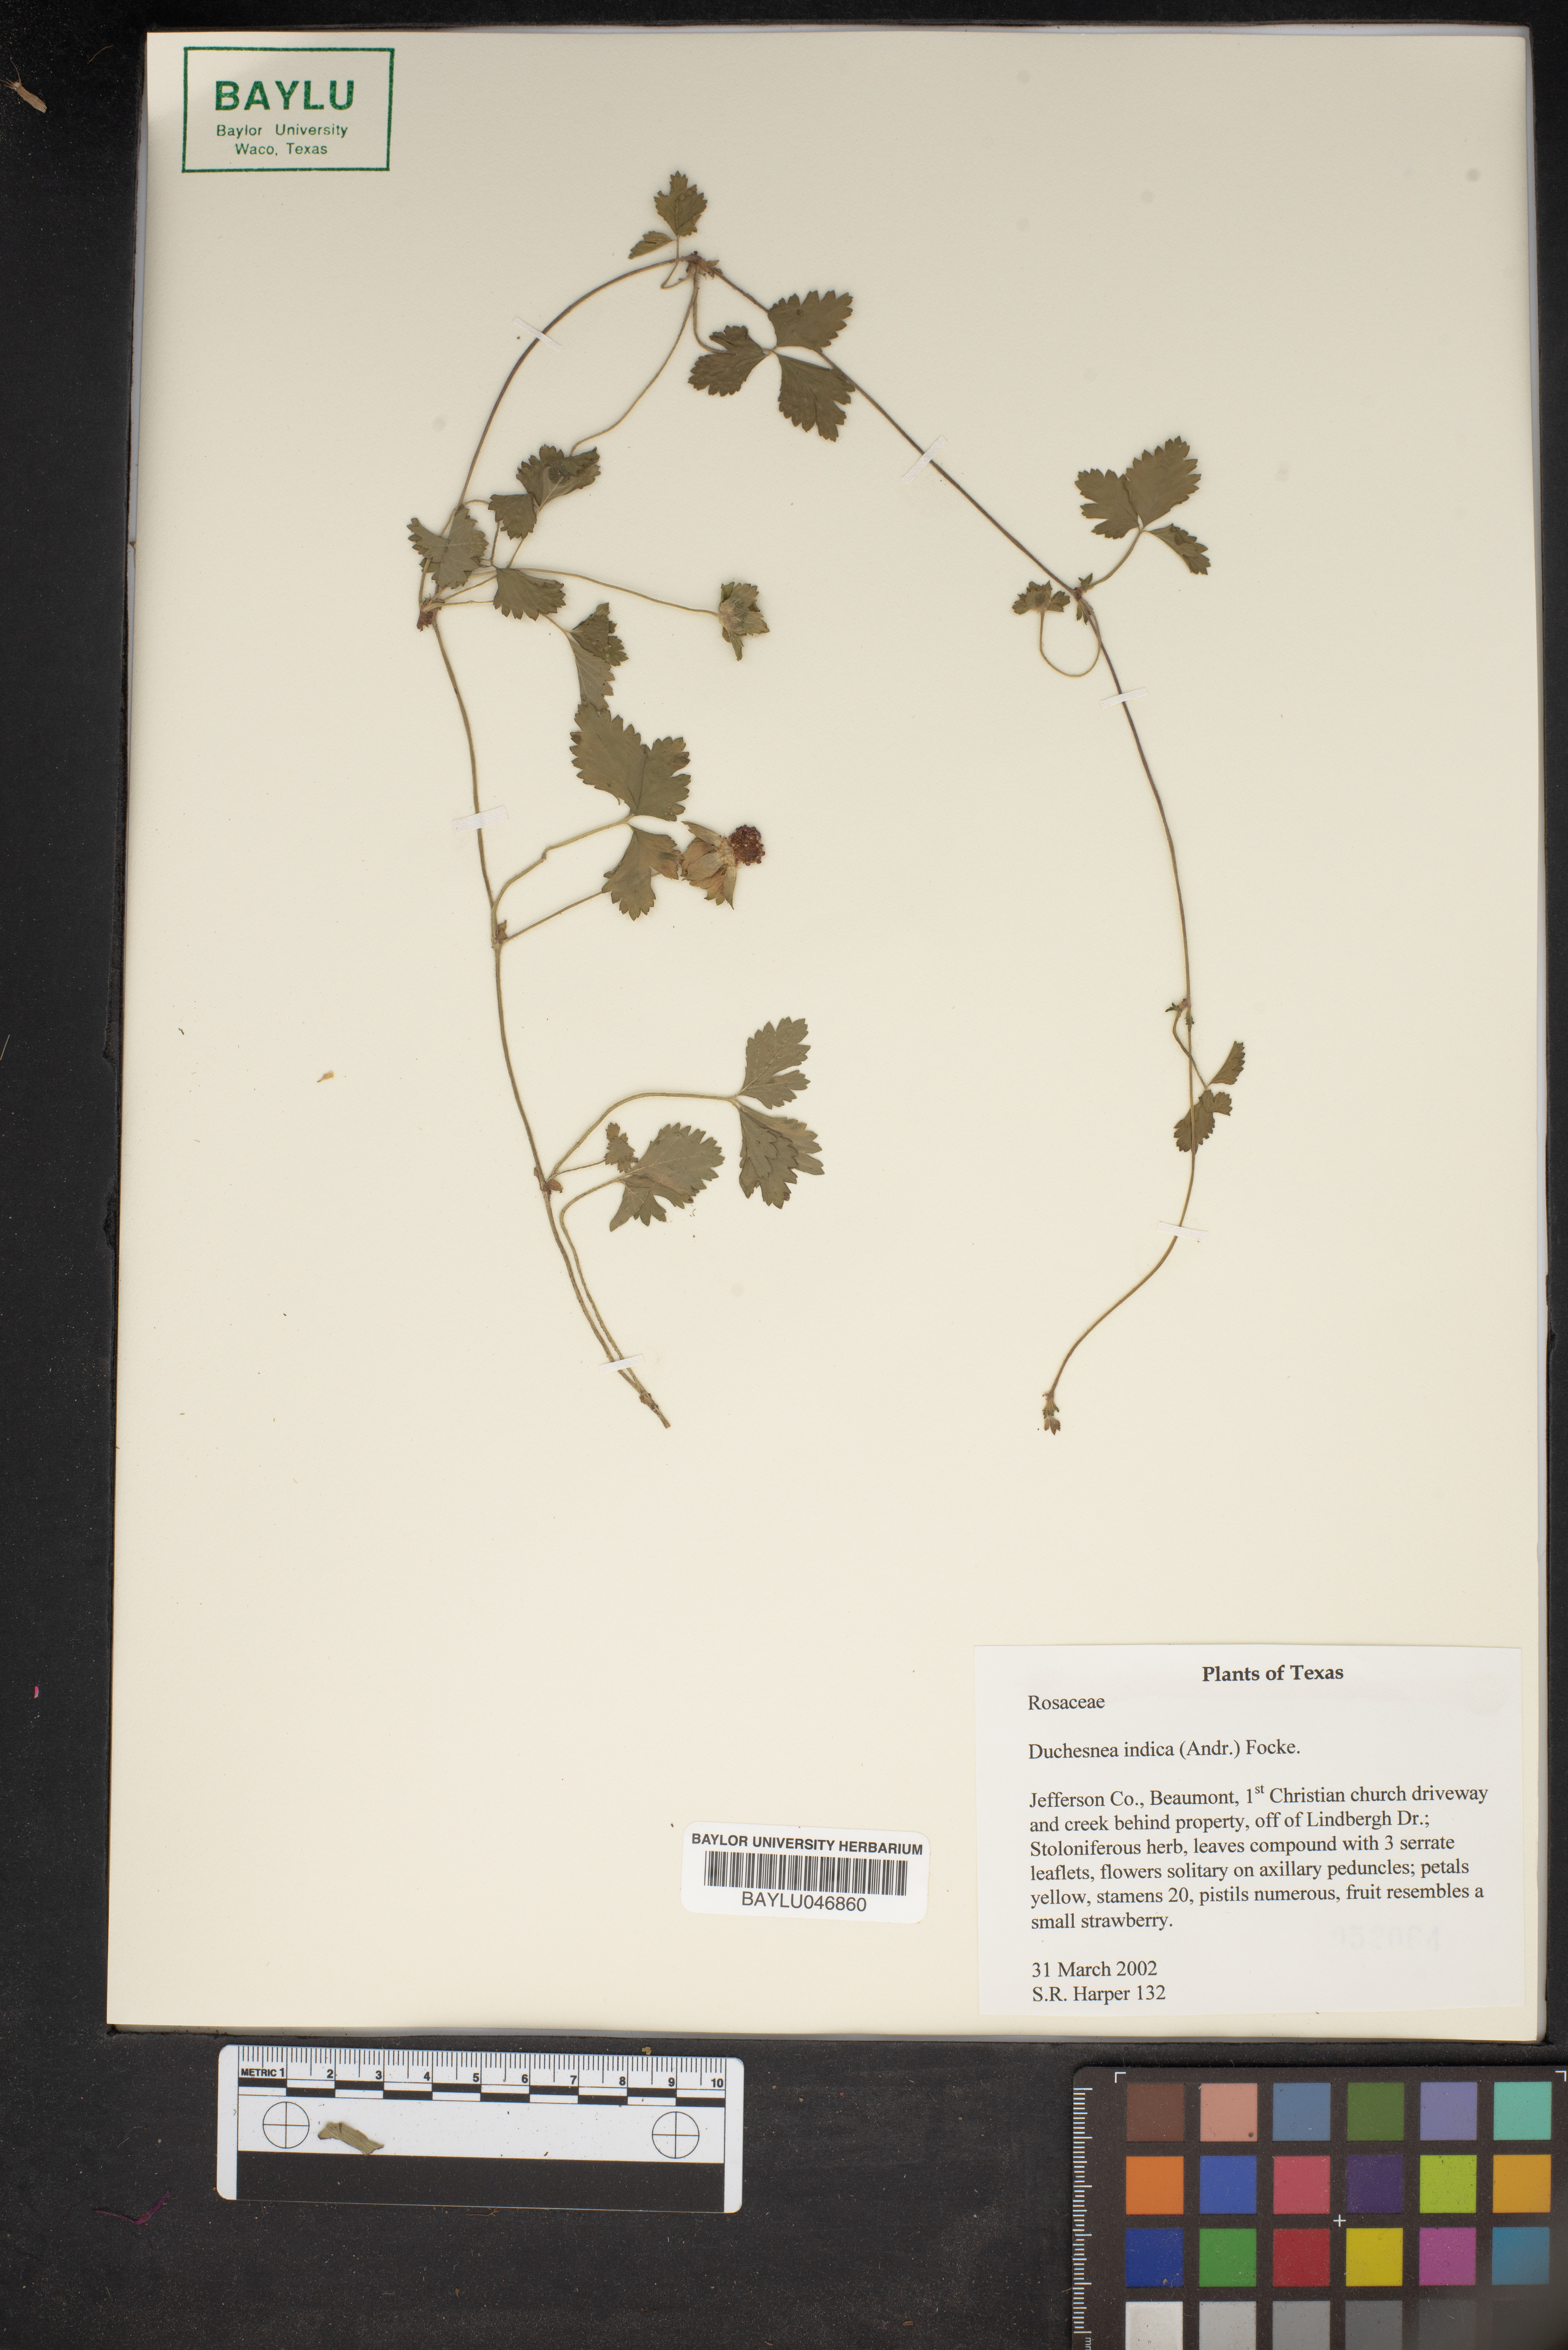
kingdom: Plantae
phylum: Tracheophyta
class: Magnoliopsida
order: Rosales
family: Rosaceae
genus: Potentilla
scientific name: Potentilla indica
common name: Yellow-flowered strawberry
